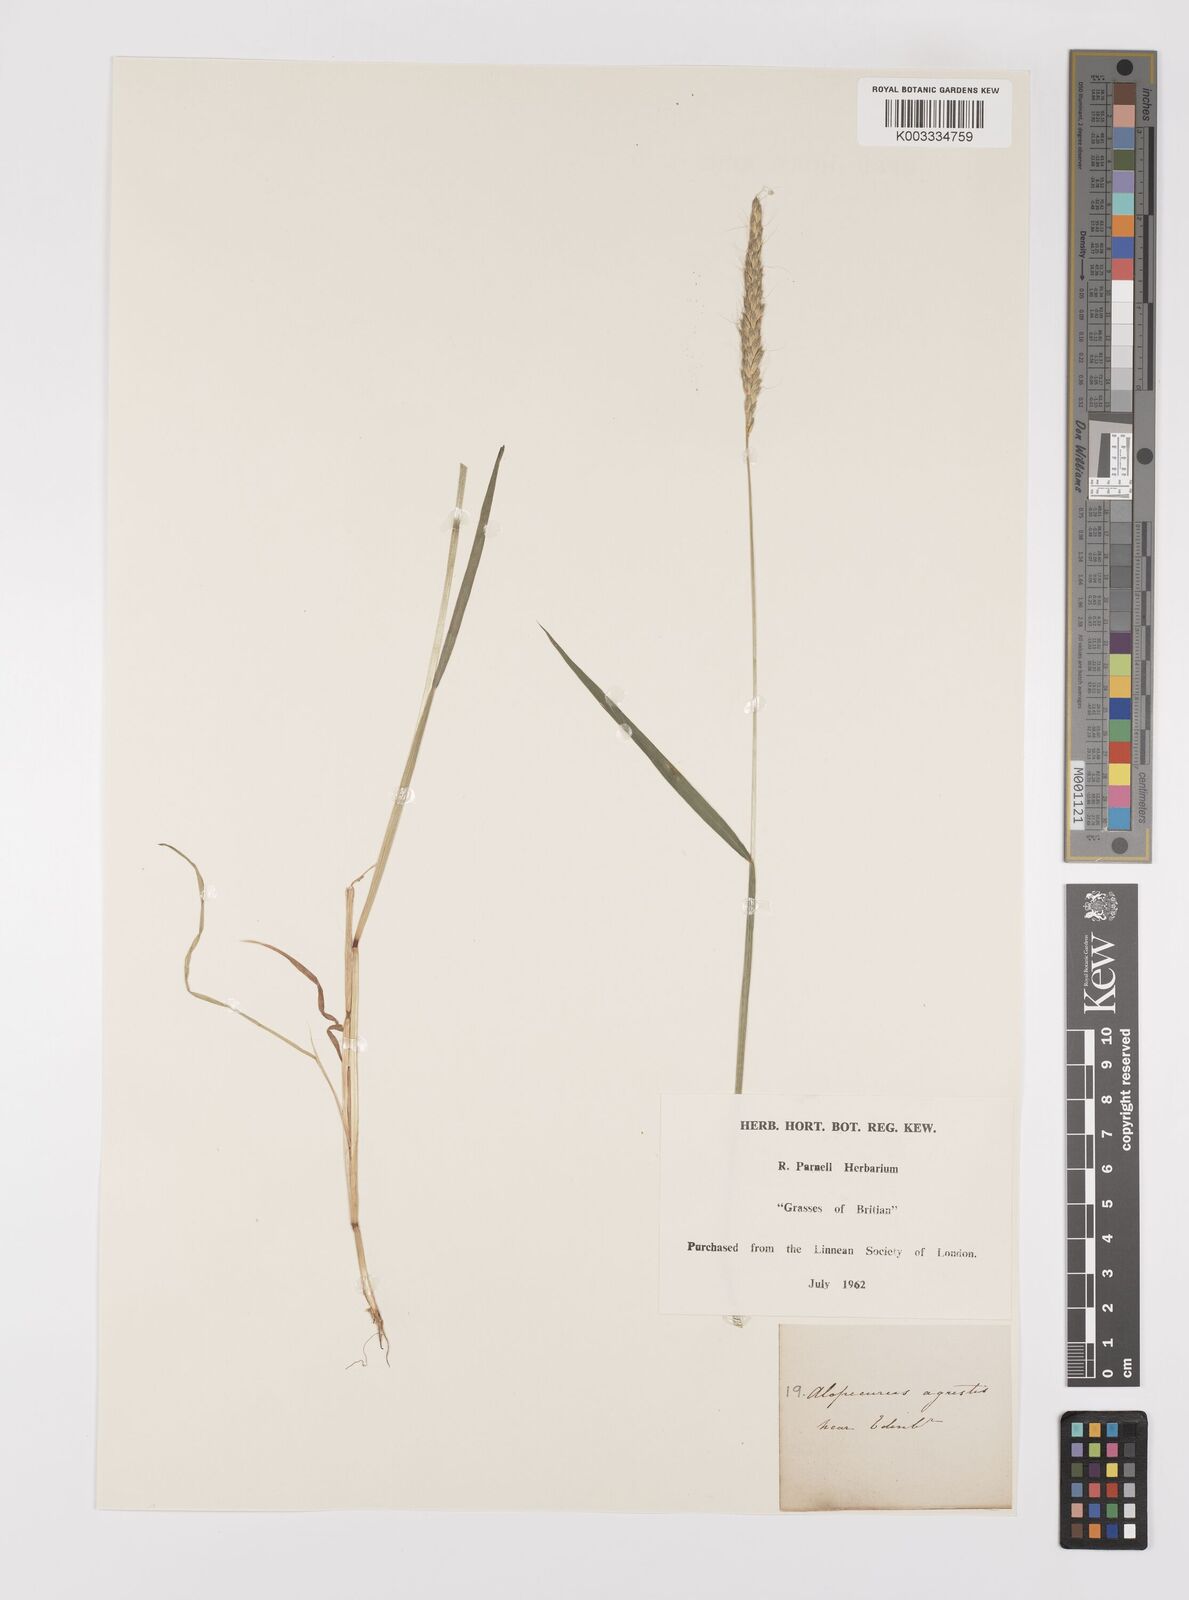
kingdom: Plantae
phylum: Tracheophyta
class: Liliopsida
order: Poales
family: Poaceae
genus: Alopecurus
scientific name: Alopecurus myosuroides
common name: Black-grass
